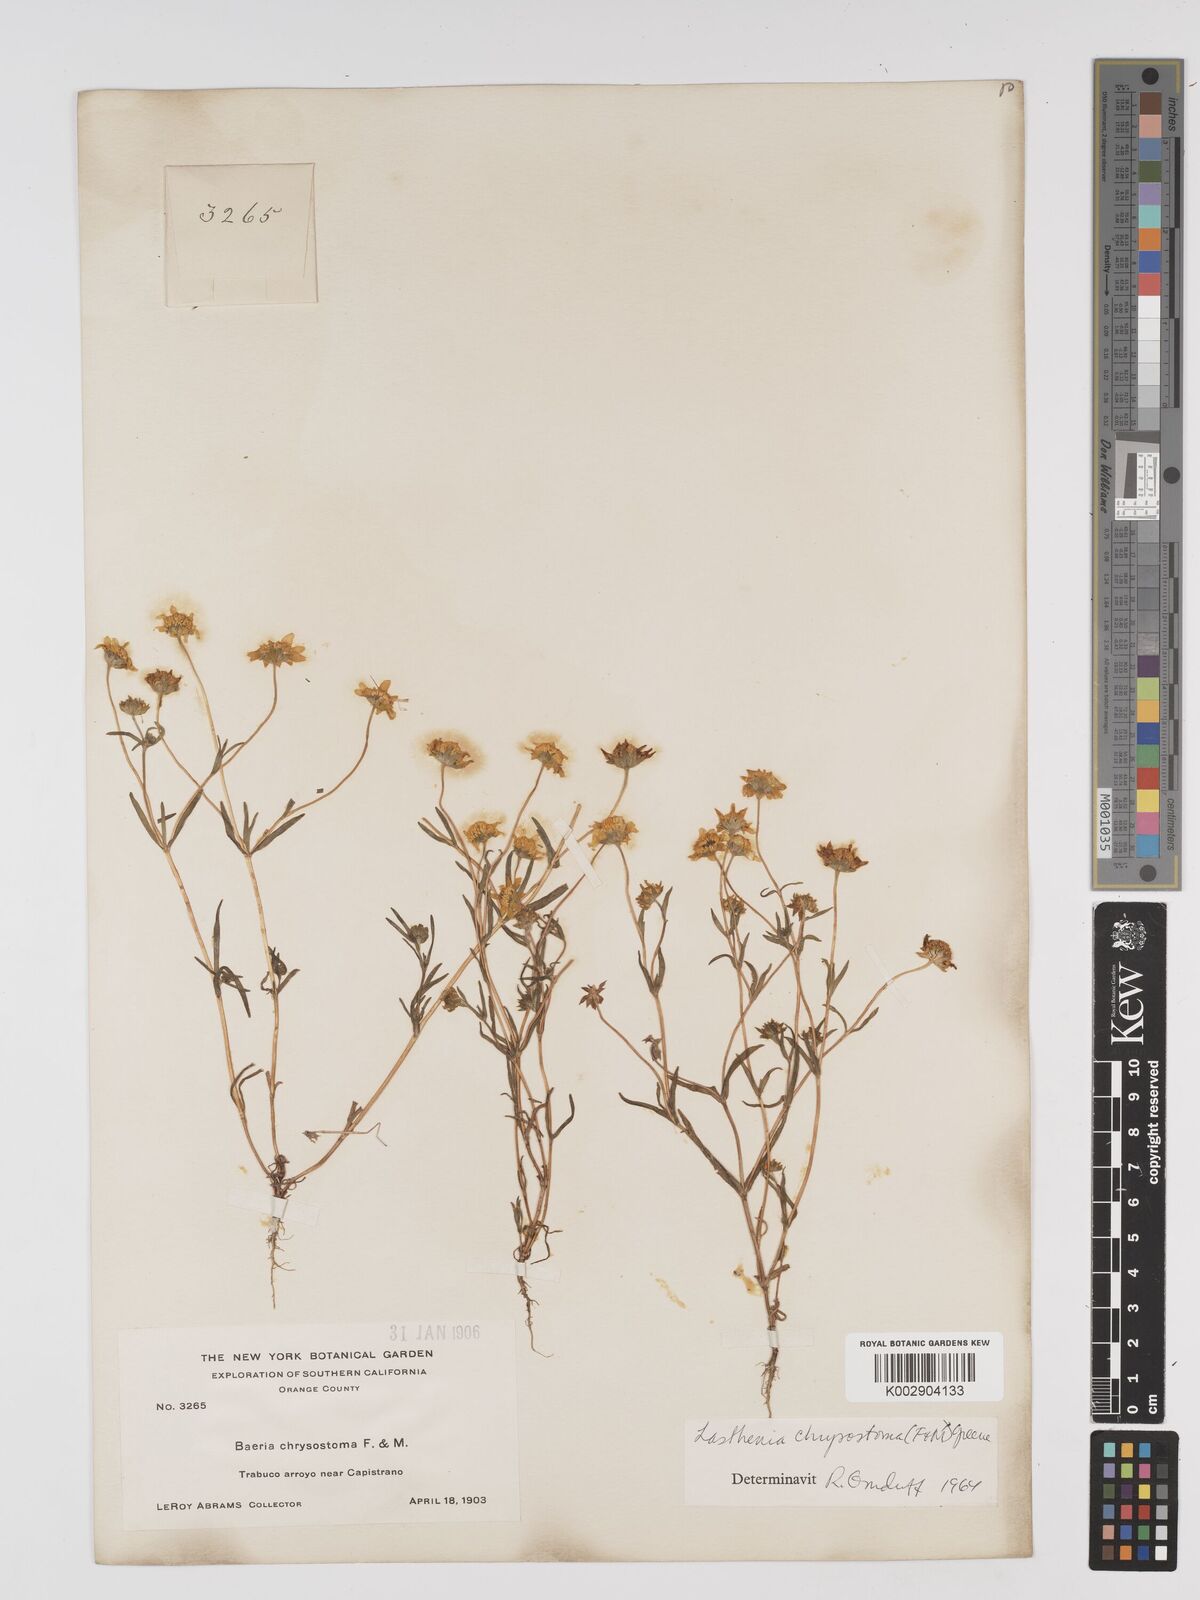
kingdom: Plantae
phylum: Tracheophyta
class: Magnoliopsida
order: Asterales
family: Asteraceae
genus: Lasthenia
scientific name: Lasthenia californica
